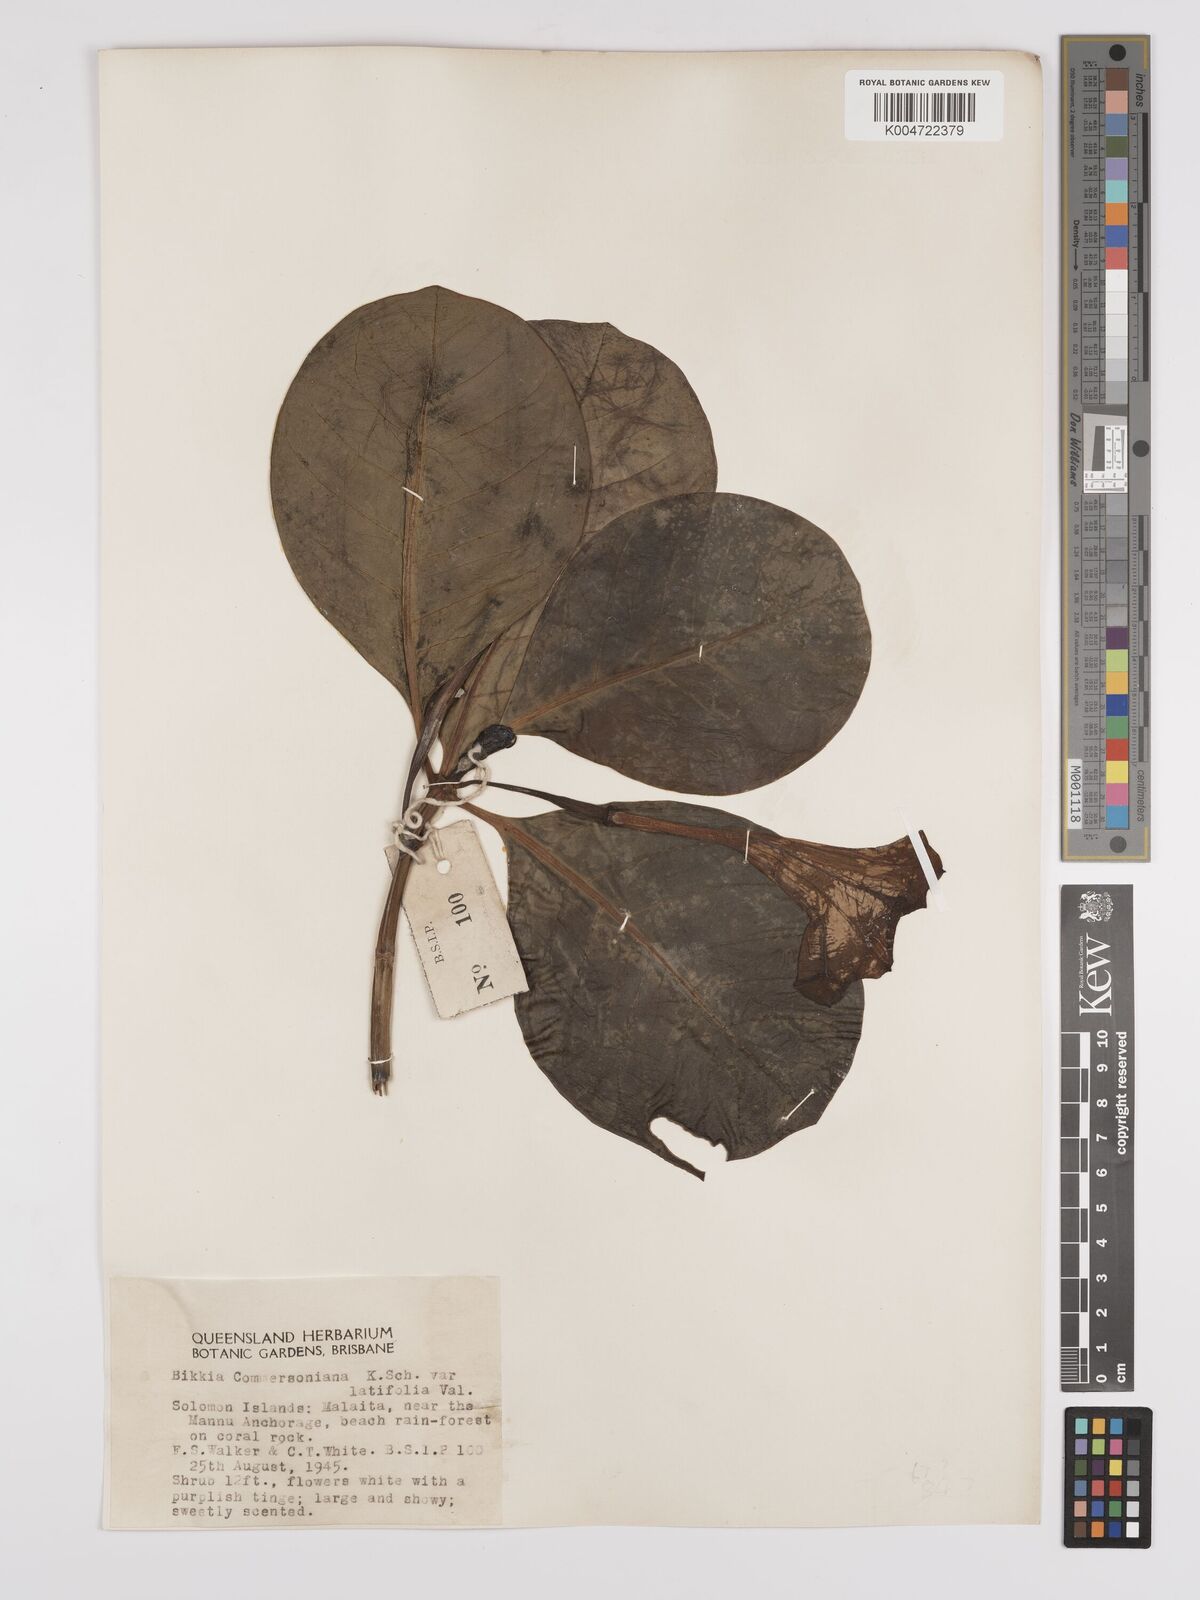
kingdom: Plantae
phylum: Tracheophyta
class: Magnoliopsida
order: Gentianales
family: Rubiaceae
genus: Bikkia
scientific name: Bikkia
